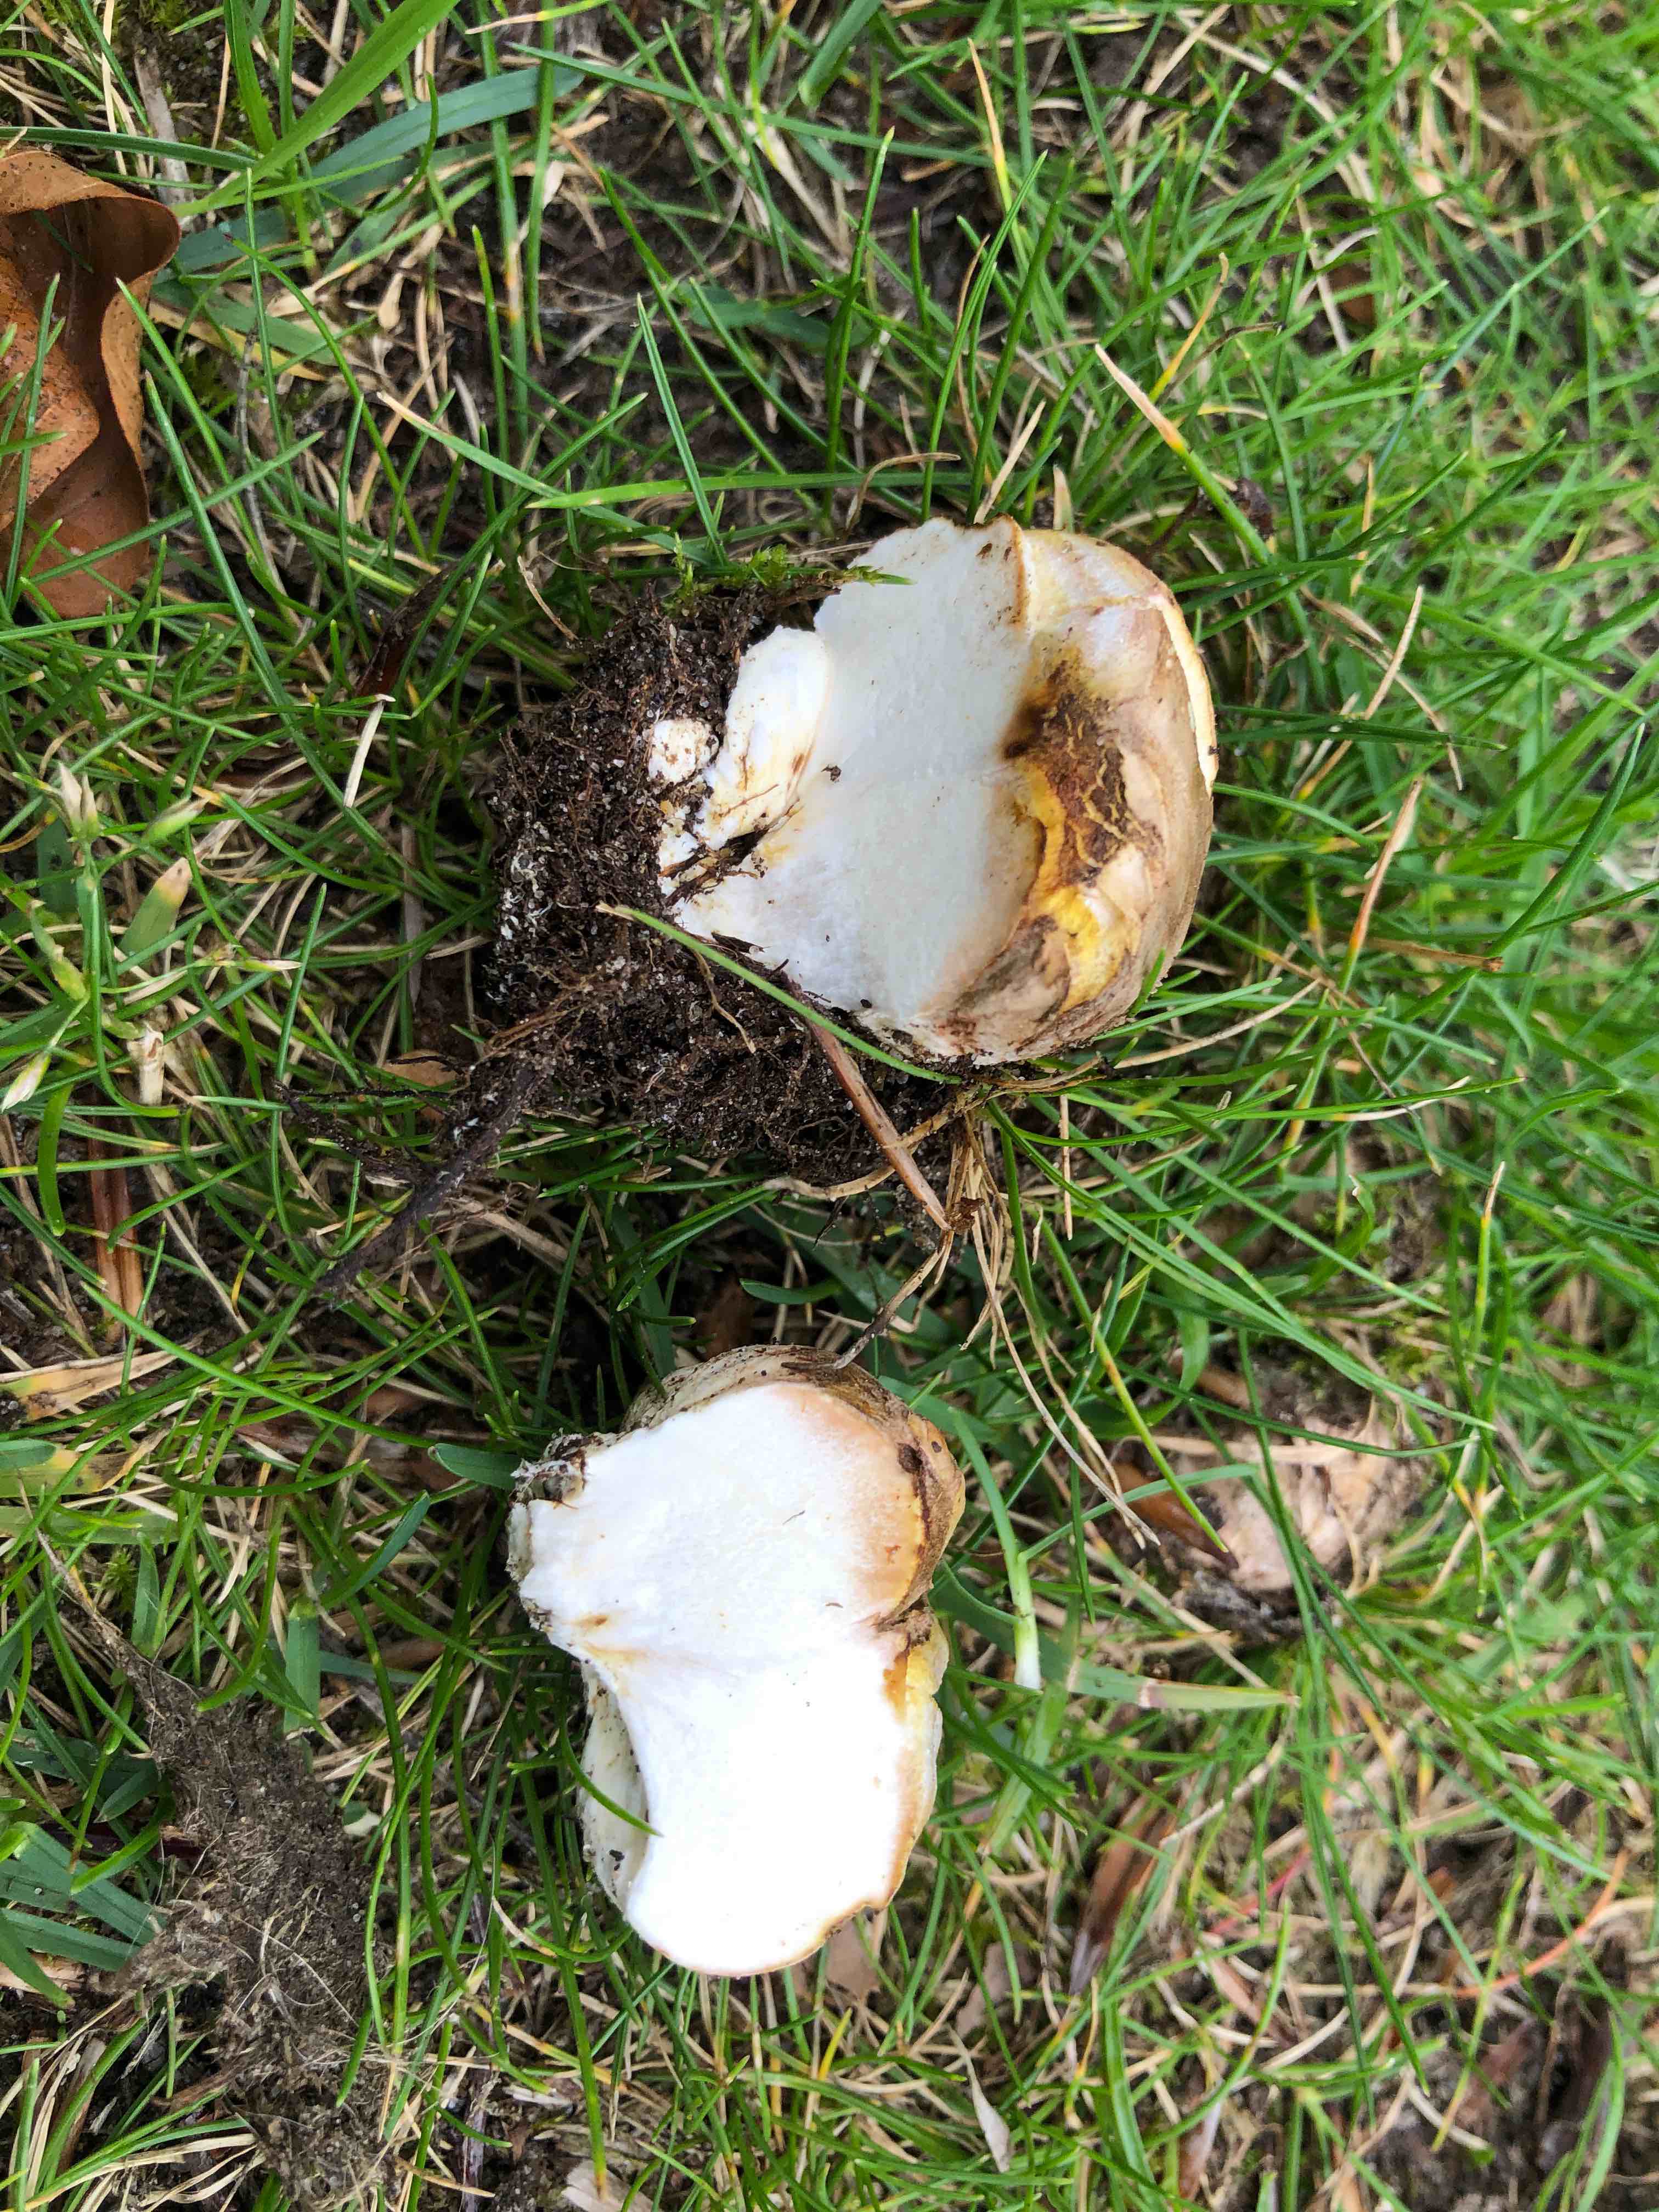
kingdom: Fungi
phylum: Basidiomycota
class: Agaricomycetes
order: Boletales
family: Sclerodermataceae
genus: Scleroderma
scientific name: Scleroderma
